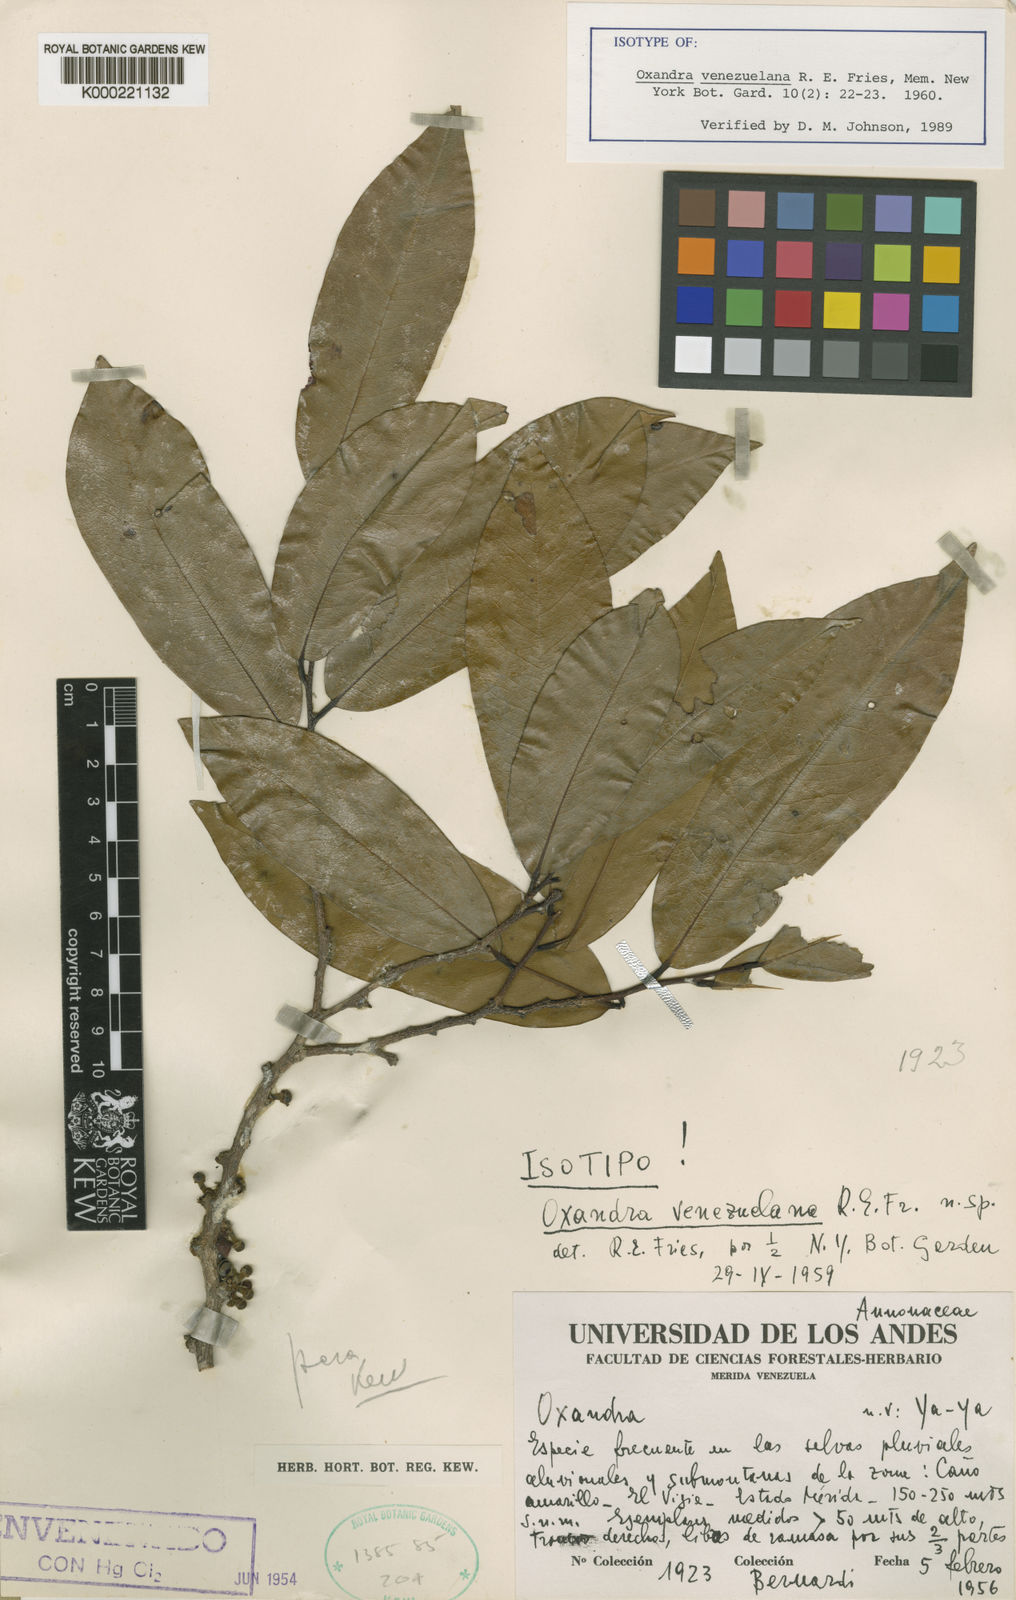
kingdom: Plantae
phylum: Tracheophyta
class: Magnoliopsida
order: Magnoliales
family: Annonaceae
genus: Oxandra
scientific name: Oxandra venezuelana
